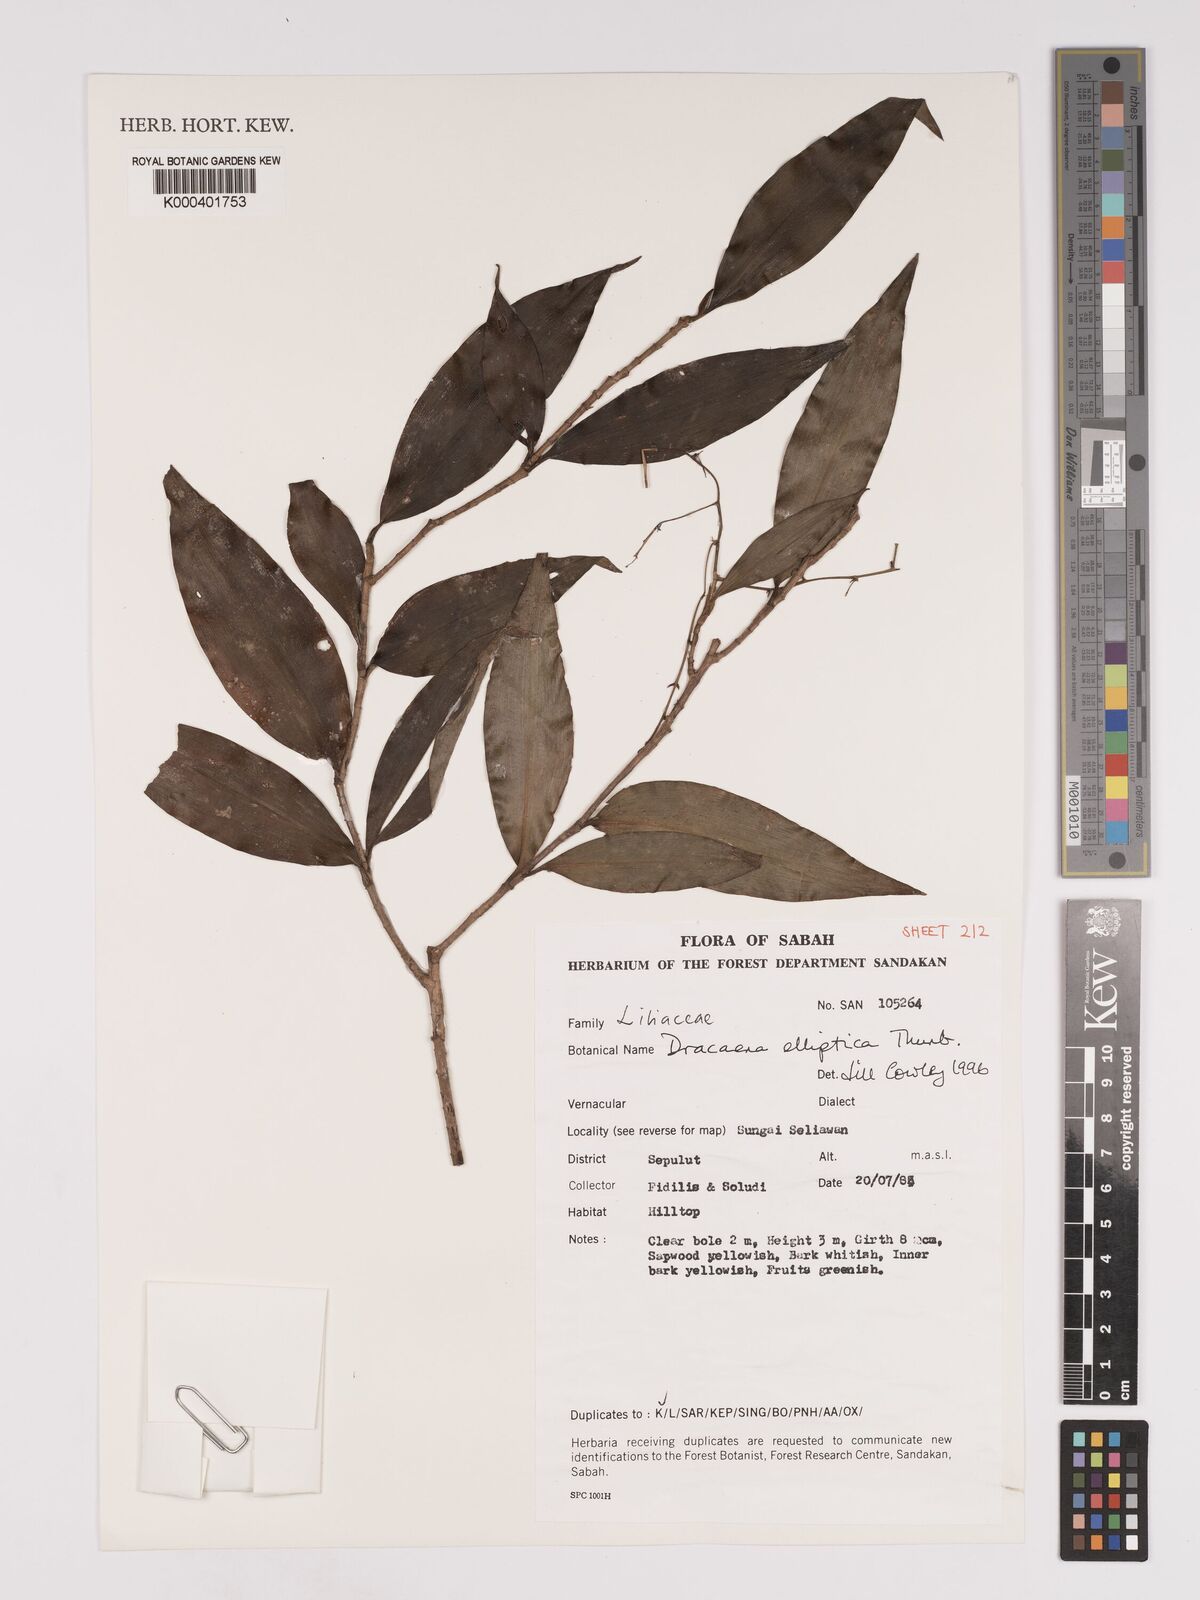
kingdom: Plantae
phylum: Tracheophyta
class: Liliopsida
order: Asparagales
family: Asparagaceae
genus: Dracaena
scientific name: Dracaena elliptica
